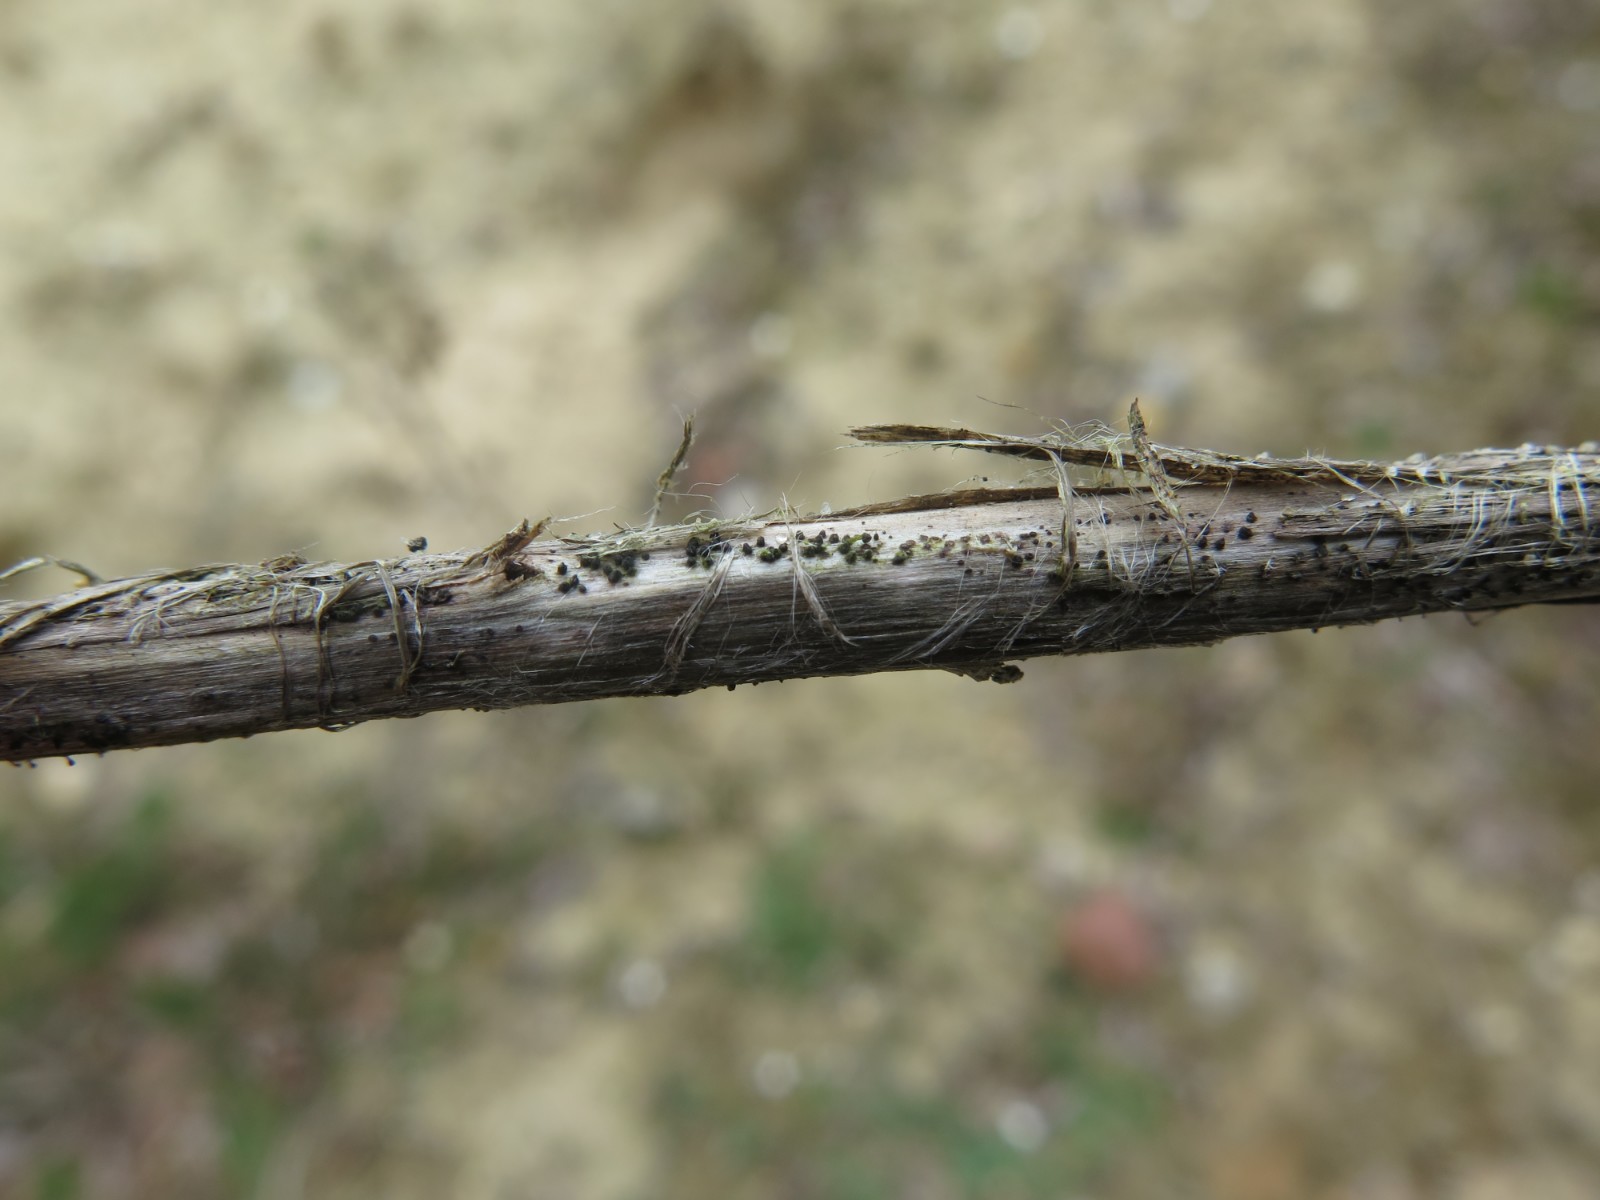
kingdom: Fungi
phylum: Ascomycota
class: Dothideomycetes
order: Pleosporales
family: Leptosphaeriaceae
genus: Leptosphaeria
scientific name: Leptosphaeria acuta
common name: spids kulkegle
